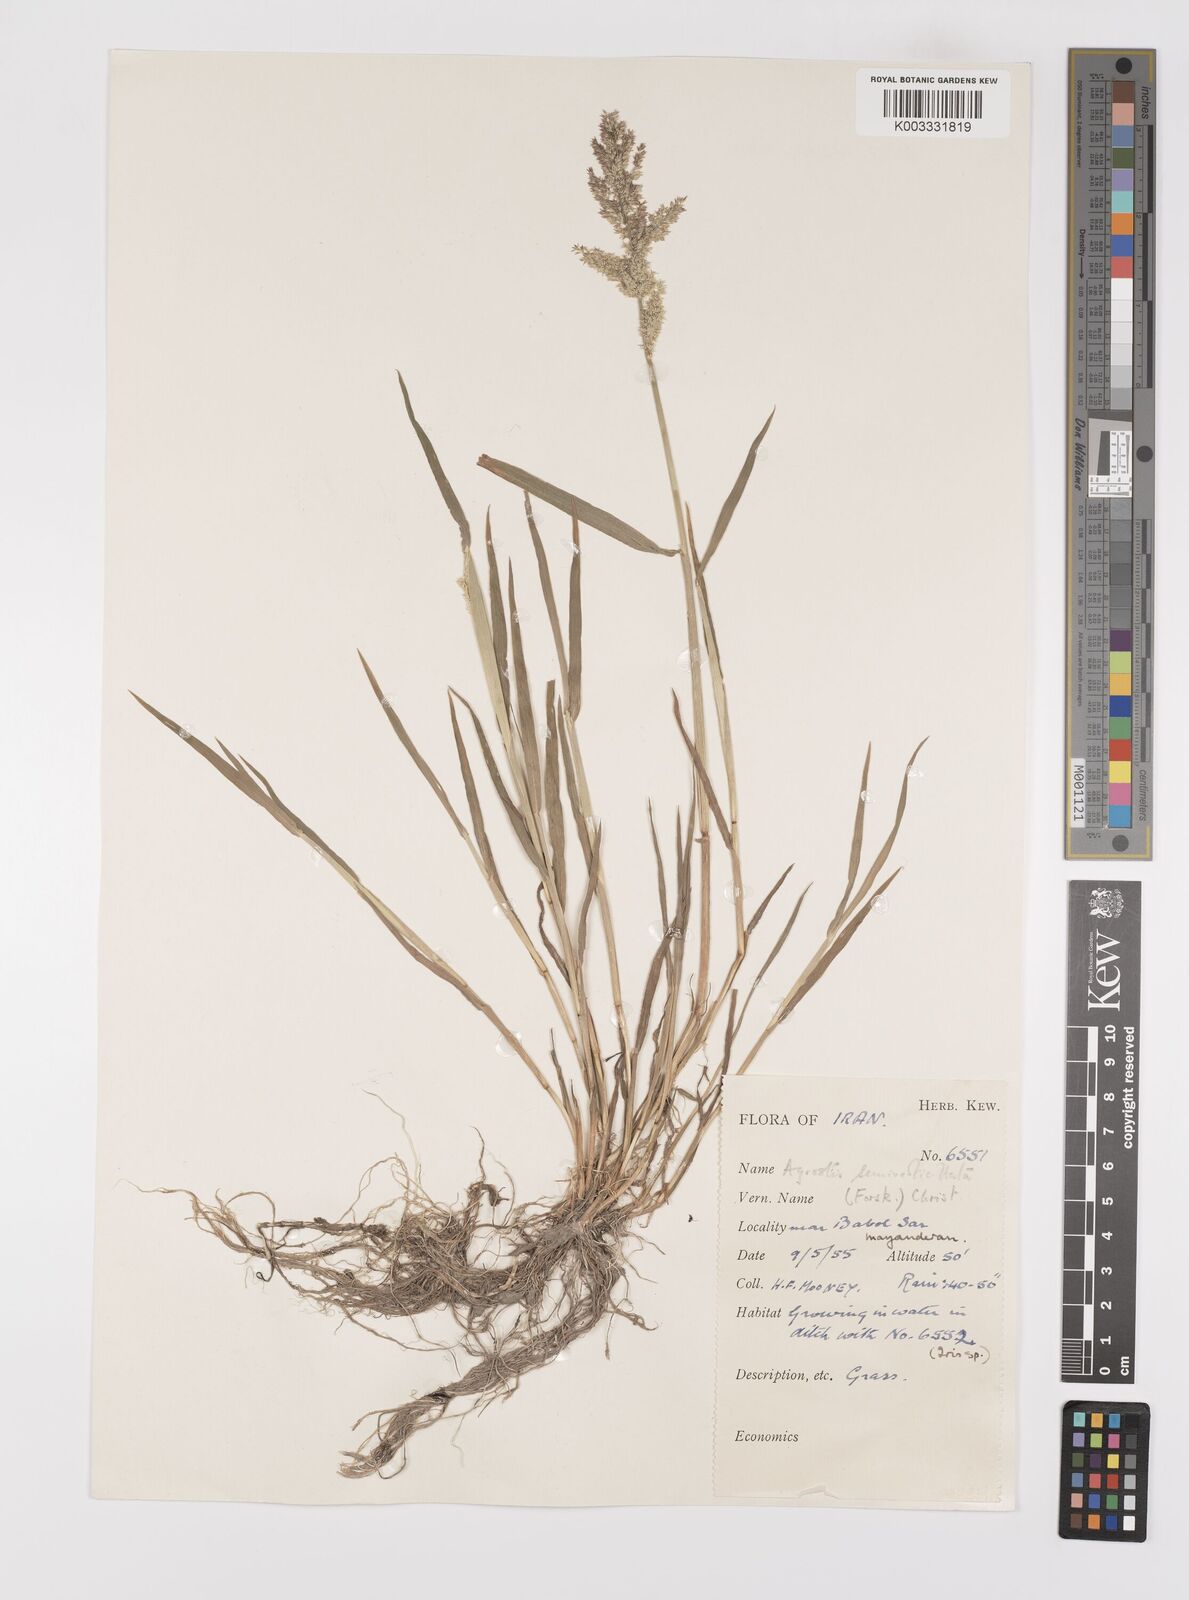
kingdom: Plantae
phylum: Tracheophyta
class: Liliopsida
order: Poales
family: Poaceae
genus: Polypogon
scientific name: Polypogon viridis
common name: Water bent
